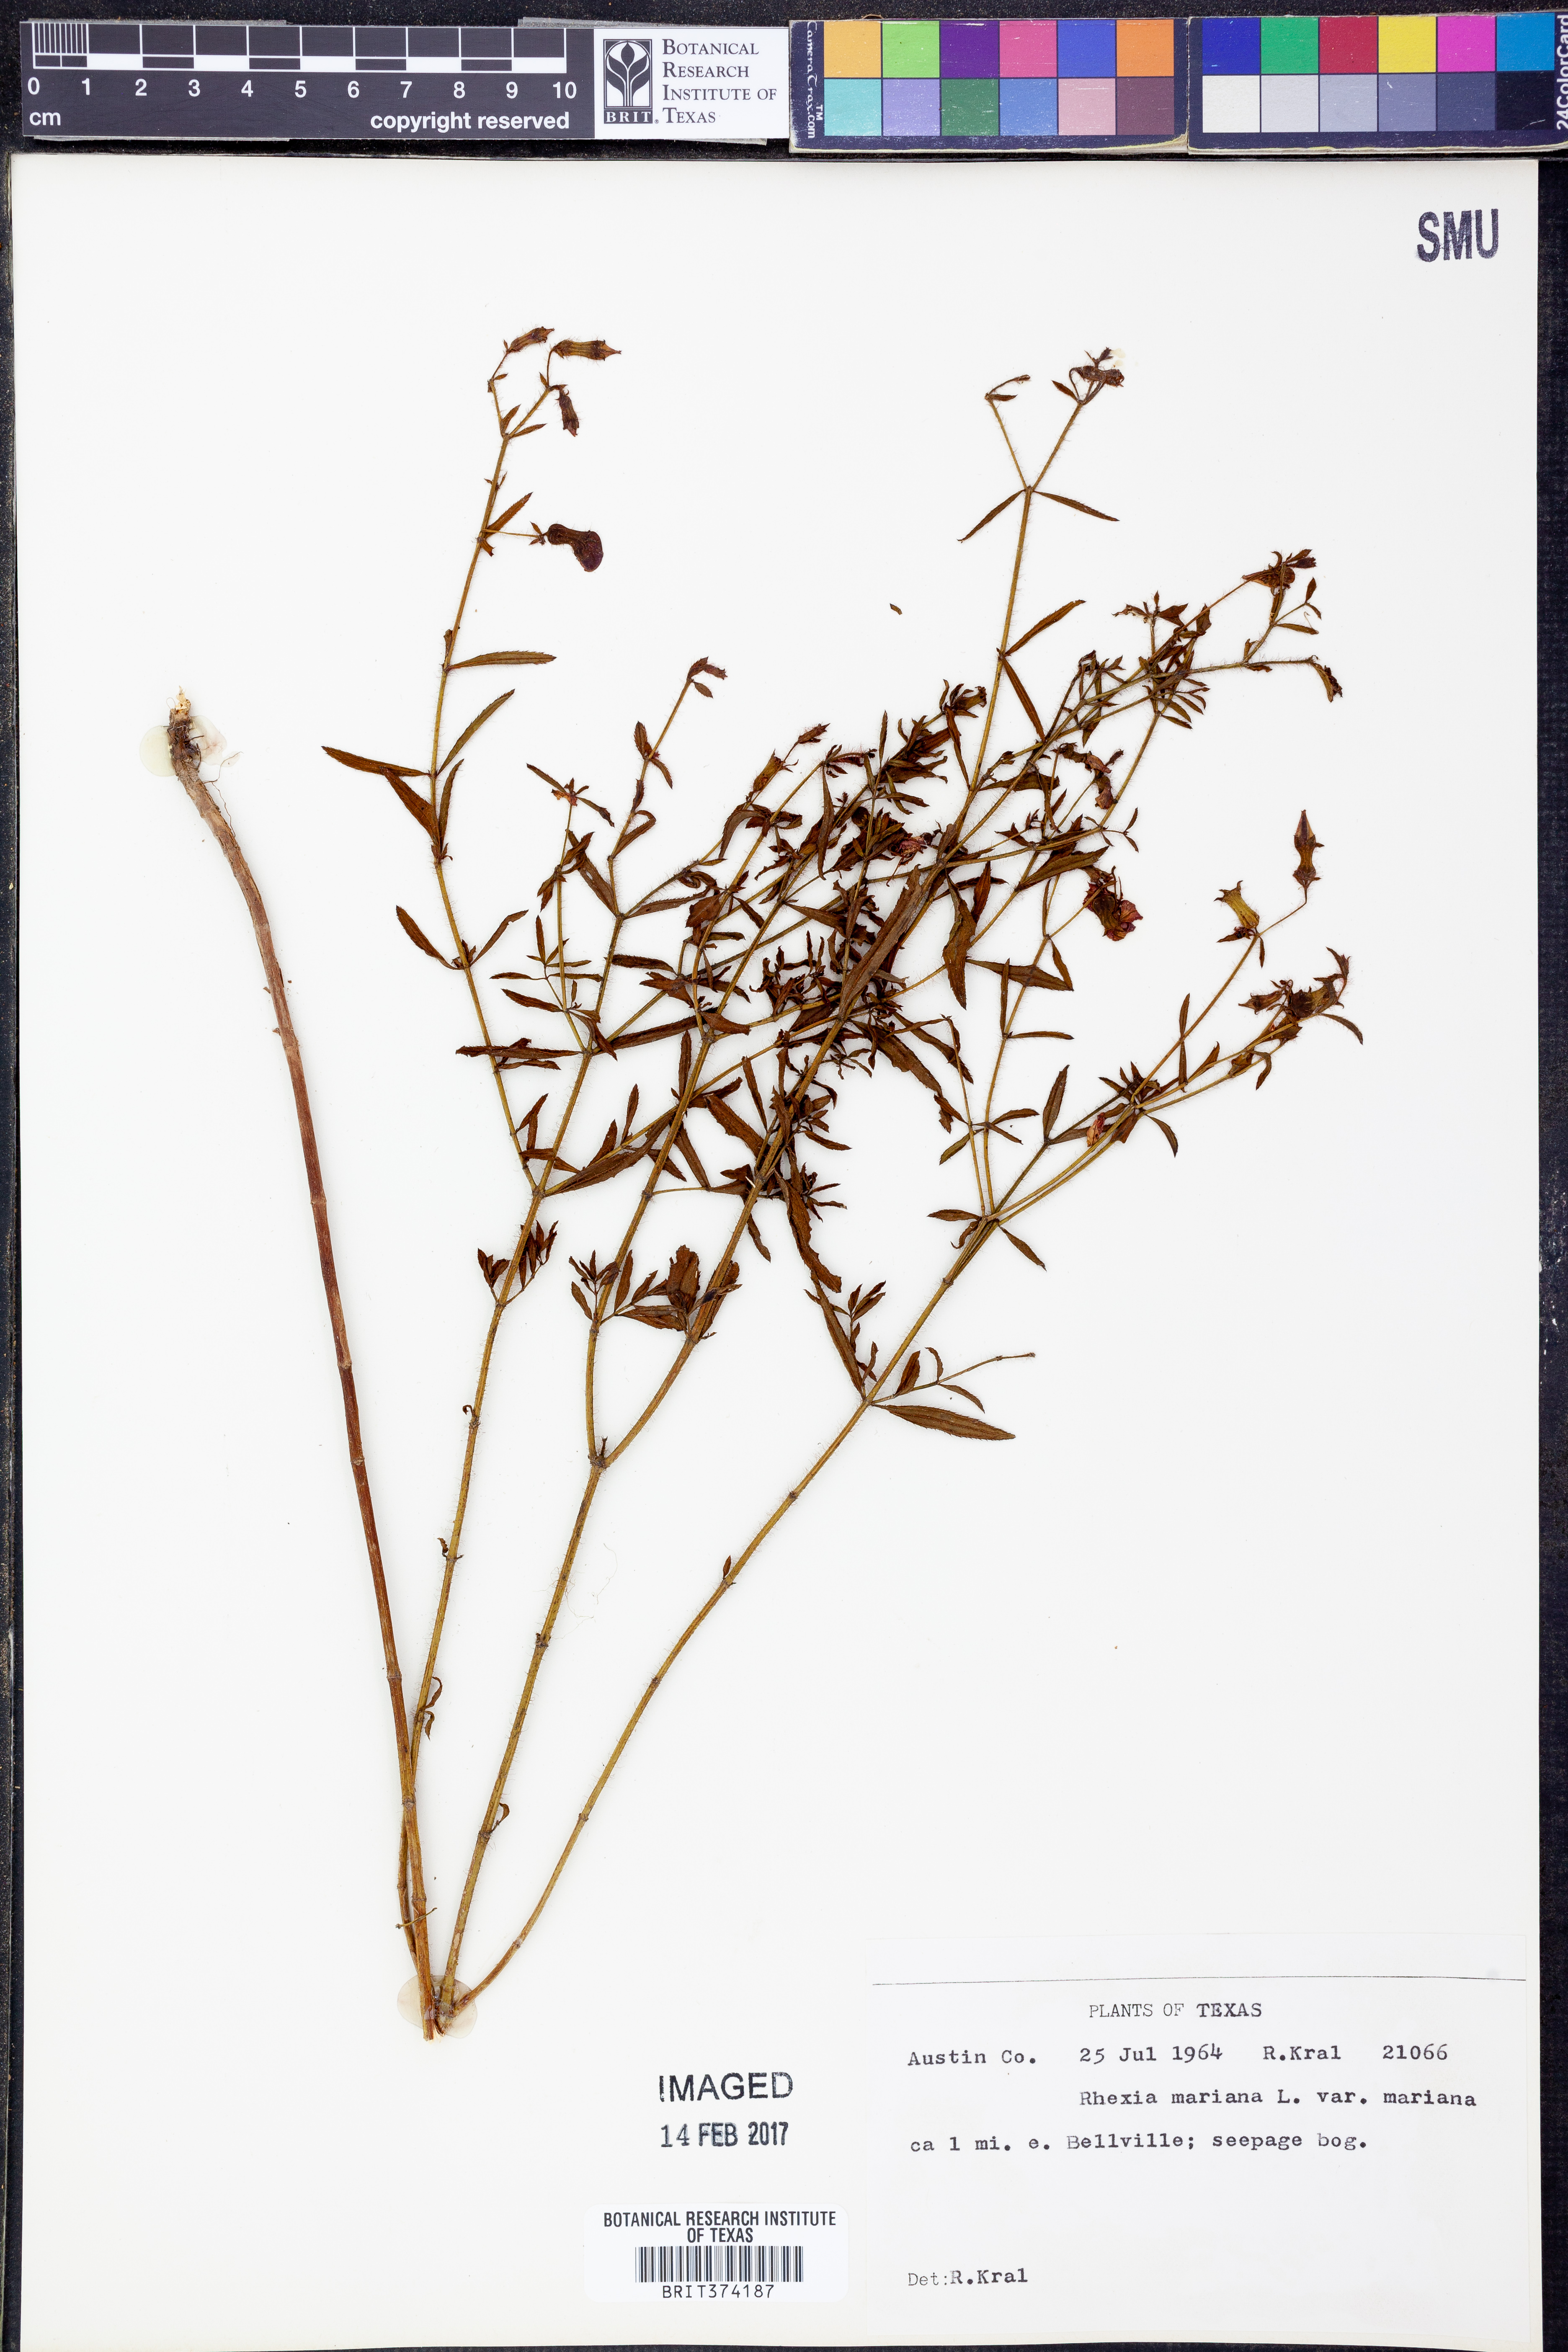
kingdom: Plantae
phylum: Tracheophyta
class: Magnoliopsida
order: Myrtales
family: Melastomataceae
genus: Rhexia
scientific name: Rhexia mariana
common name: Dull meadow-pitcher
